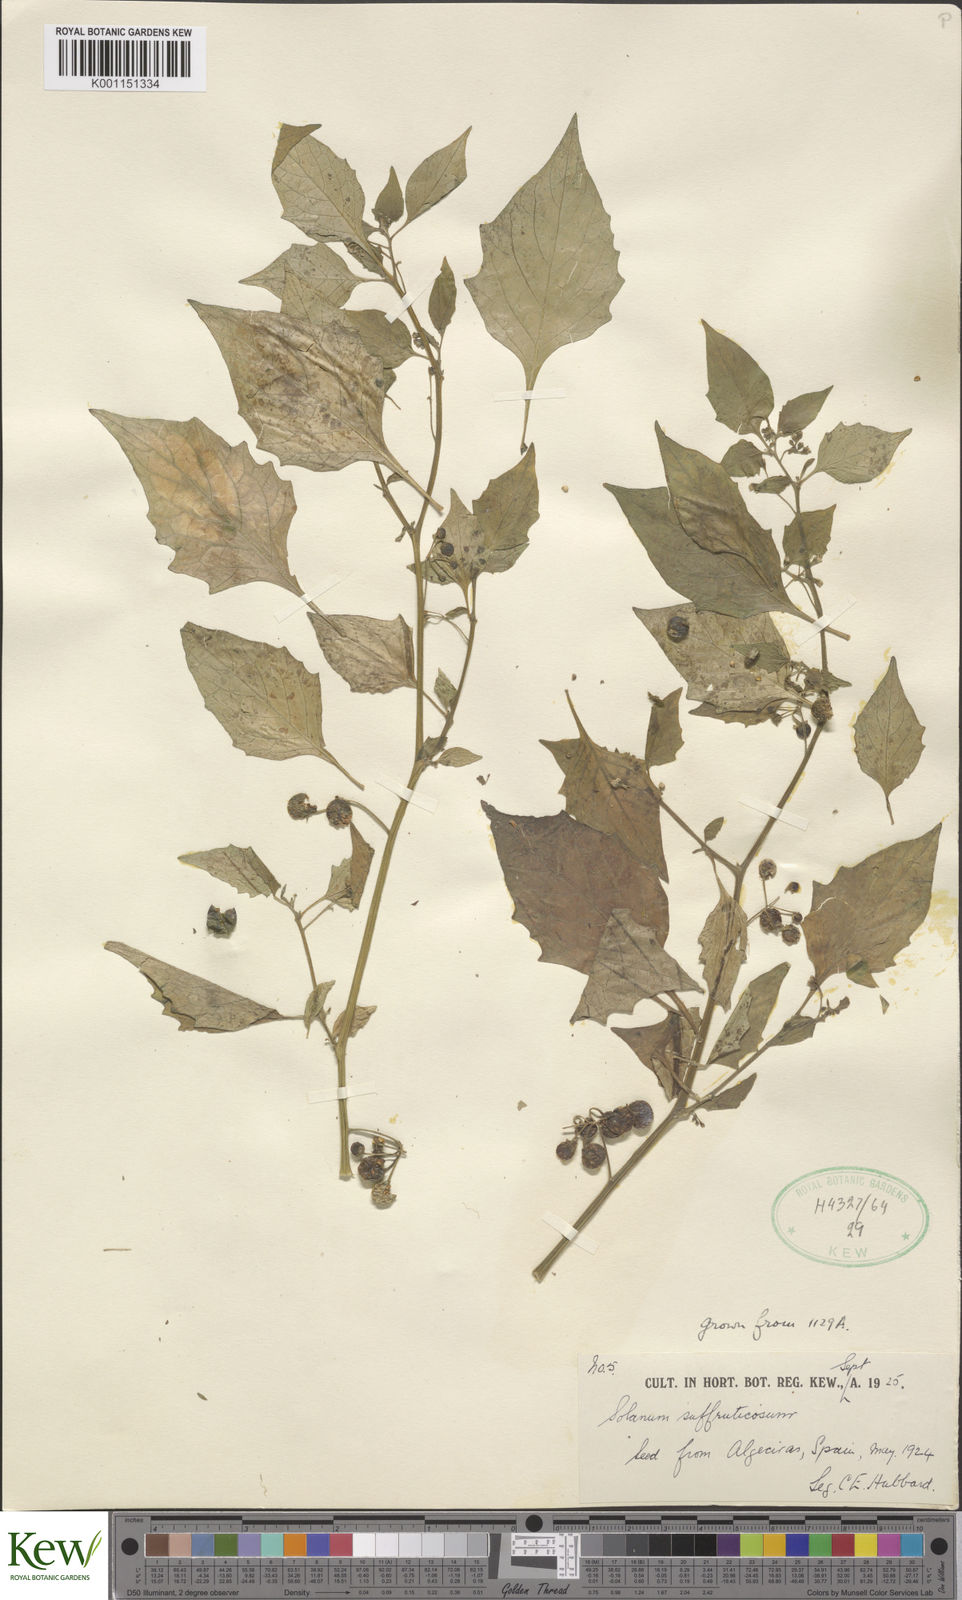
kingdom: Plantae
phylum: Tracheophyta
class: Magnoliopsida
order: Solanales
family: Solanaceae
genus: Solanum
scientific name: Solanum nigrum
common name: Black nightshade
